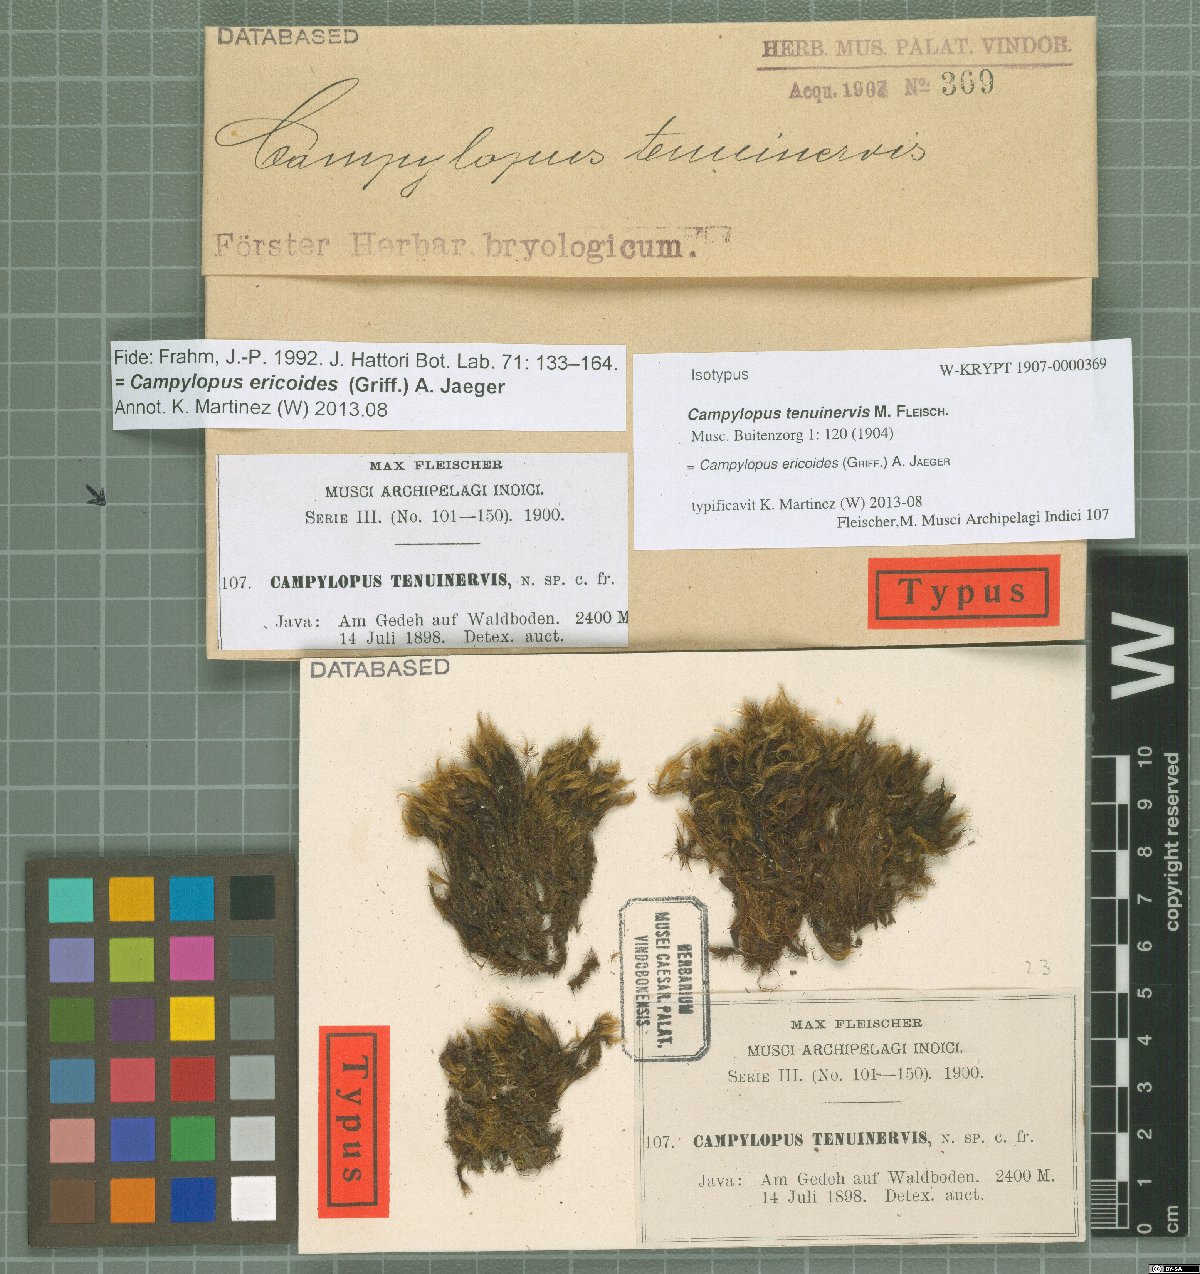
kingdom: Plantae
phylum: Bryophyta
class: Bryopsida
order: Dicranales
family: Leucobryaceae
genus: Campylopus
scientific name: Campylopus ericoides
